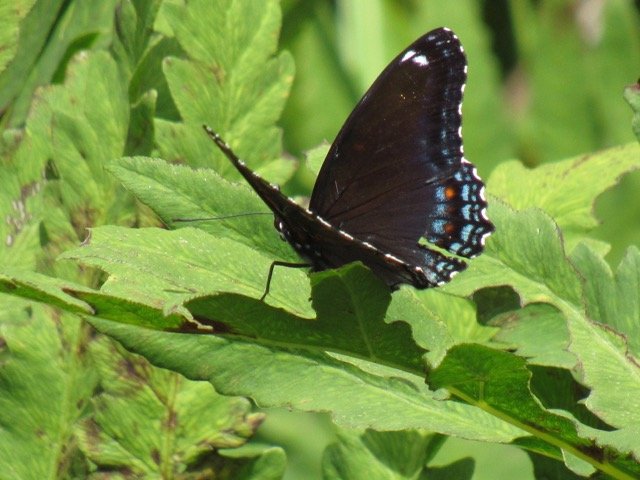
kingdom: Animalia
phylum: Arthropoda
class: Insecta
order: Lepidoptera
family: Nymphalidae
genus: Limenitis
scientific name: Limenitis
